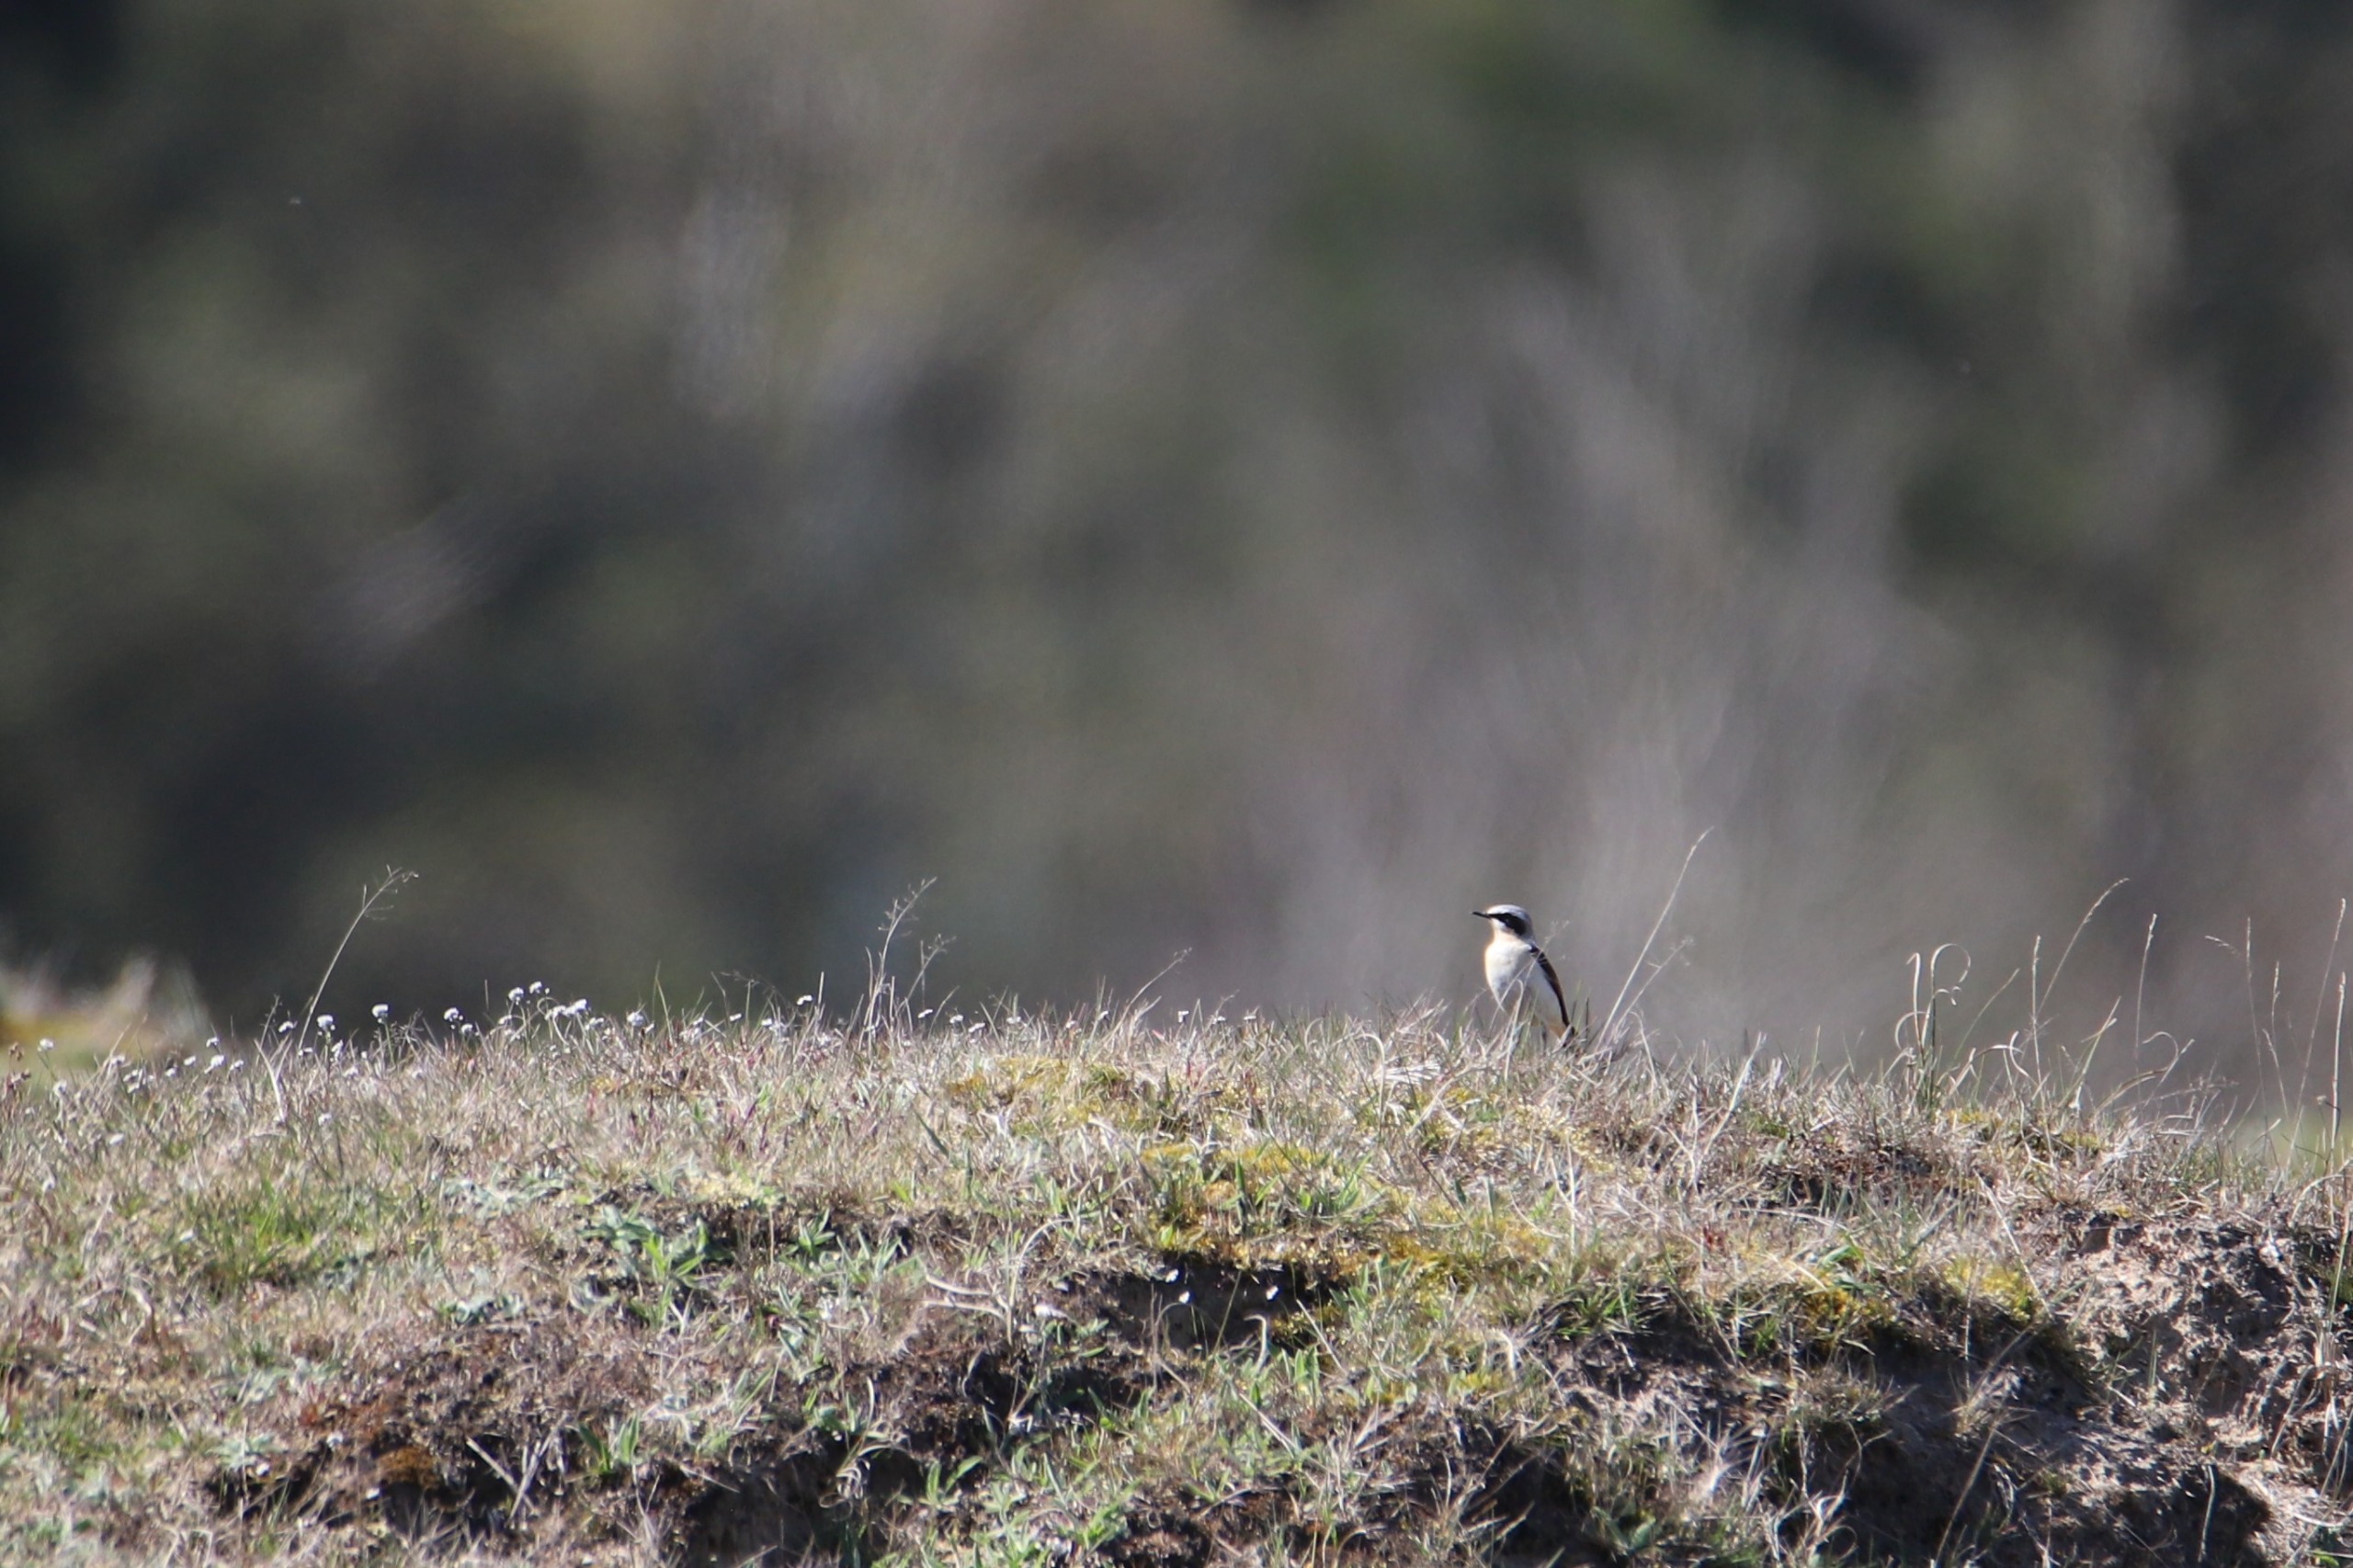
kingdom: Animalia
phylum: Chordata
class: Aves
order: Passeriformes
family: Muscicapidae
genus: Oenanthe
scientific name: Oenanthe oenanthe
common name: Stenpikker
